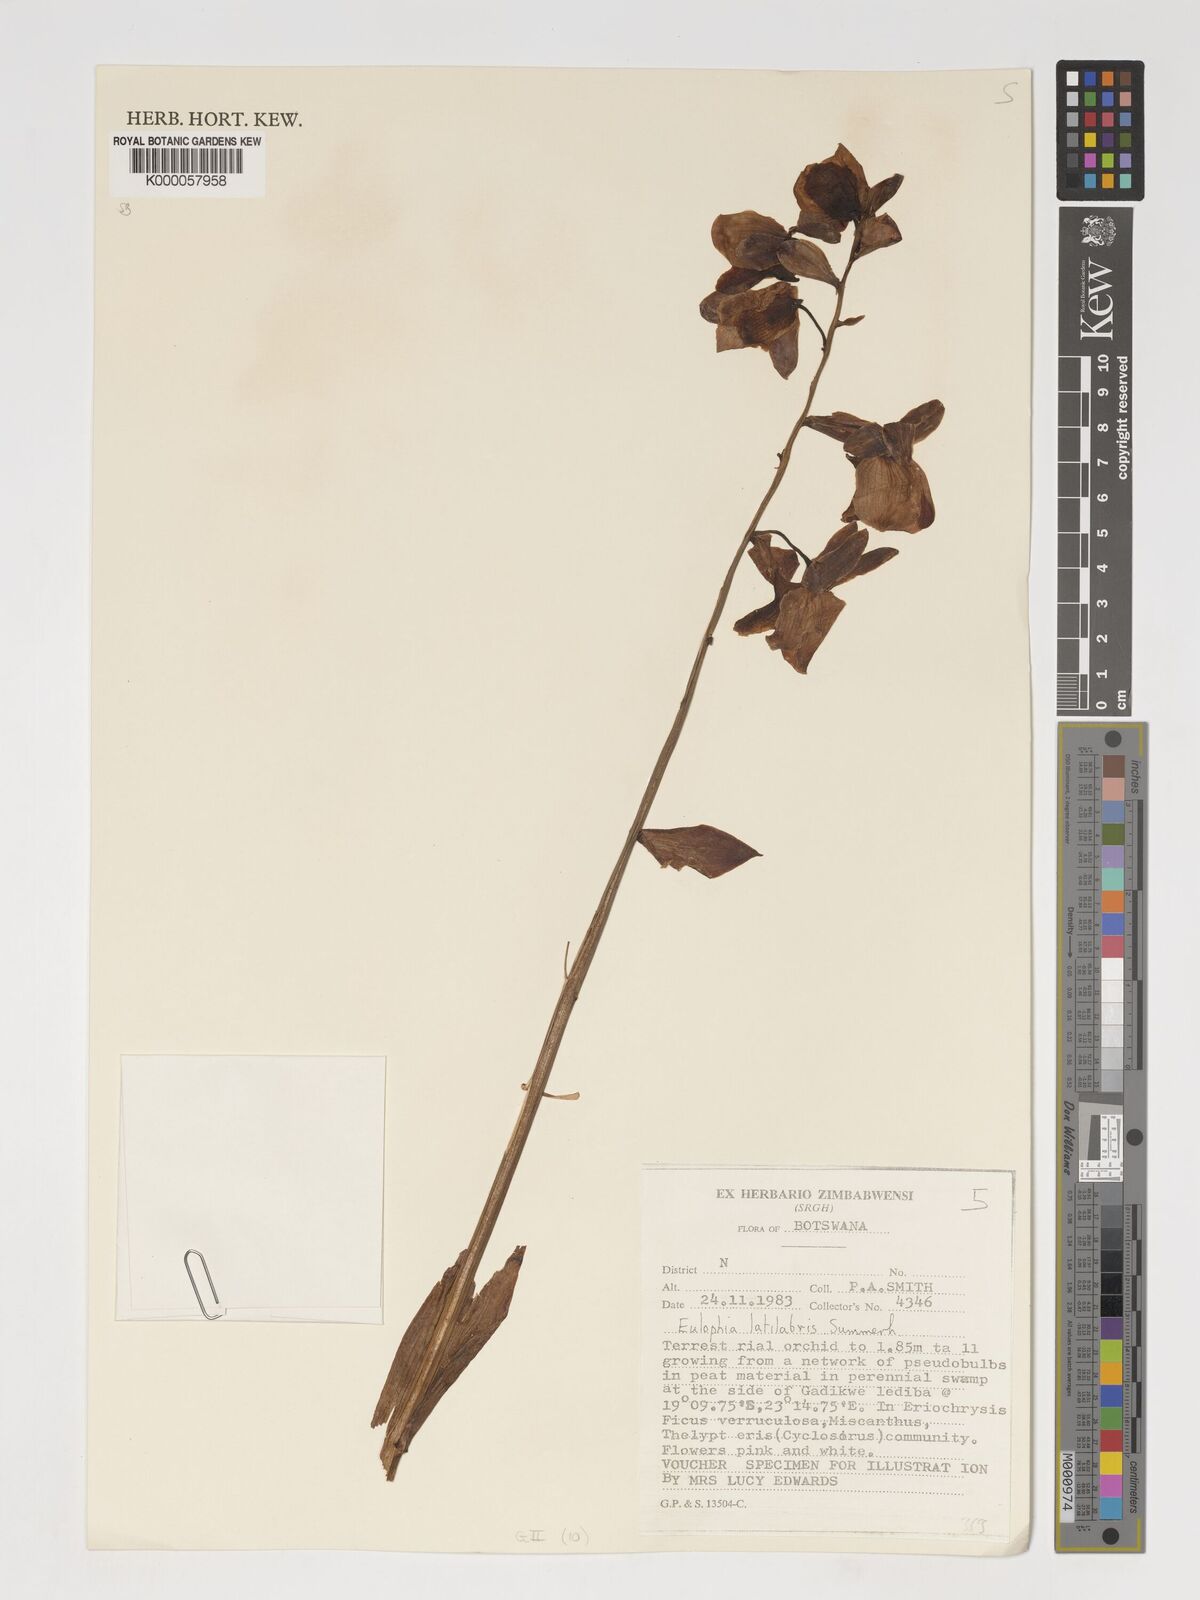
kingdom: Plantae
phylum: Tracheophyta
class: Liliopsida
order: Asparagales
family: Orchidaceae
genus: Eulophia
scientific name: Eulophia latilabris
